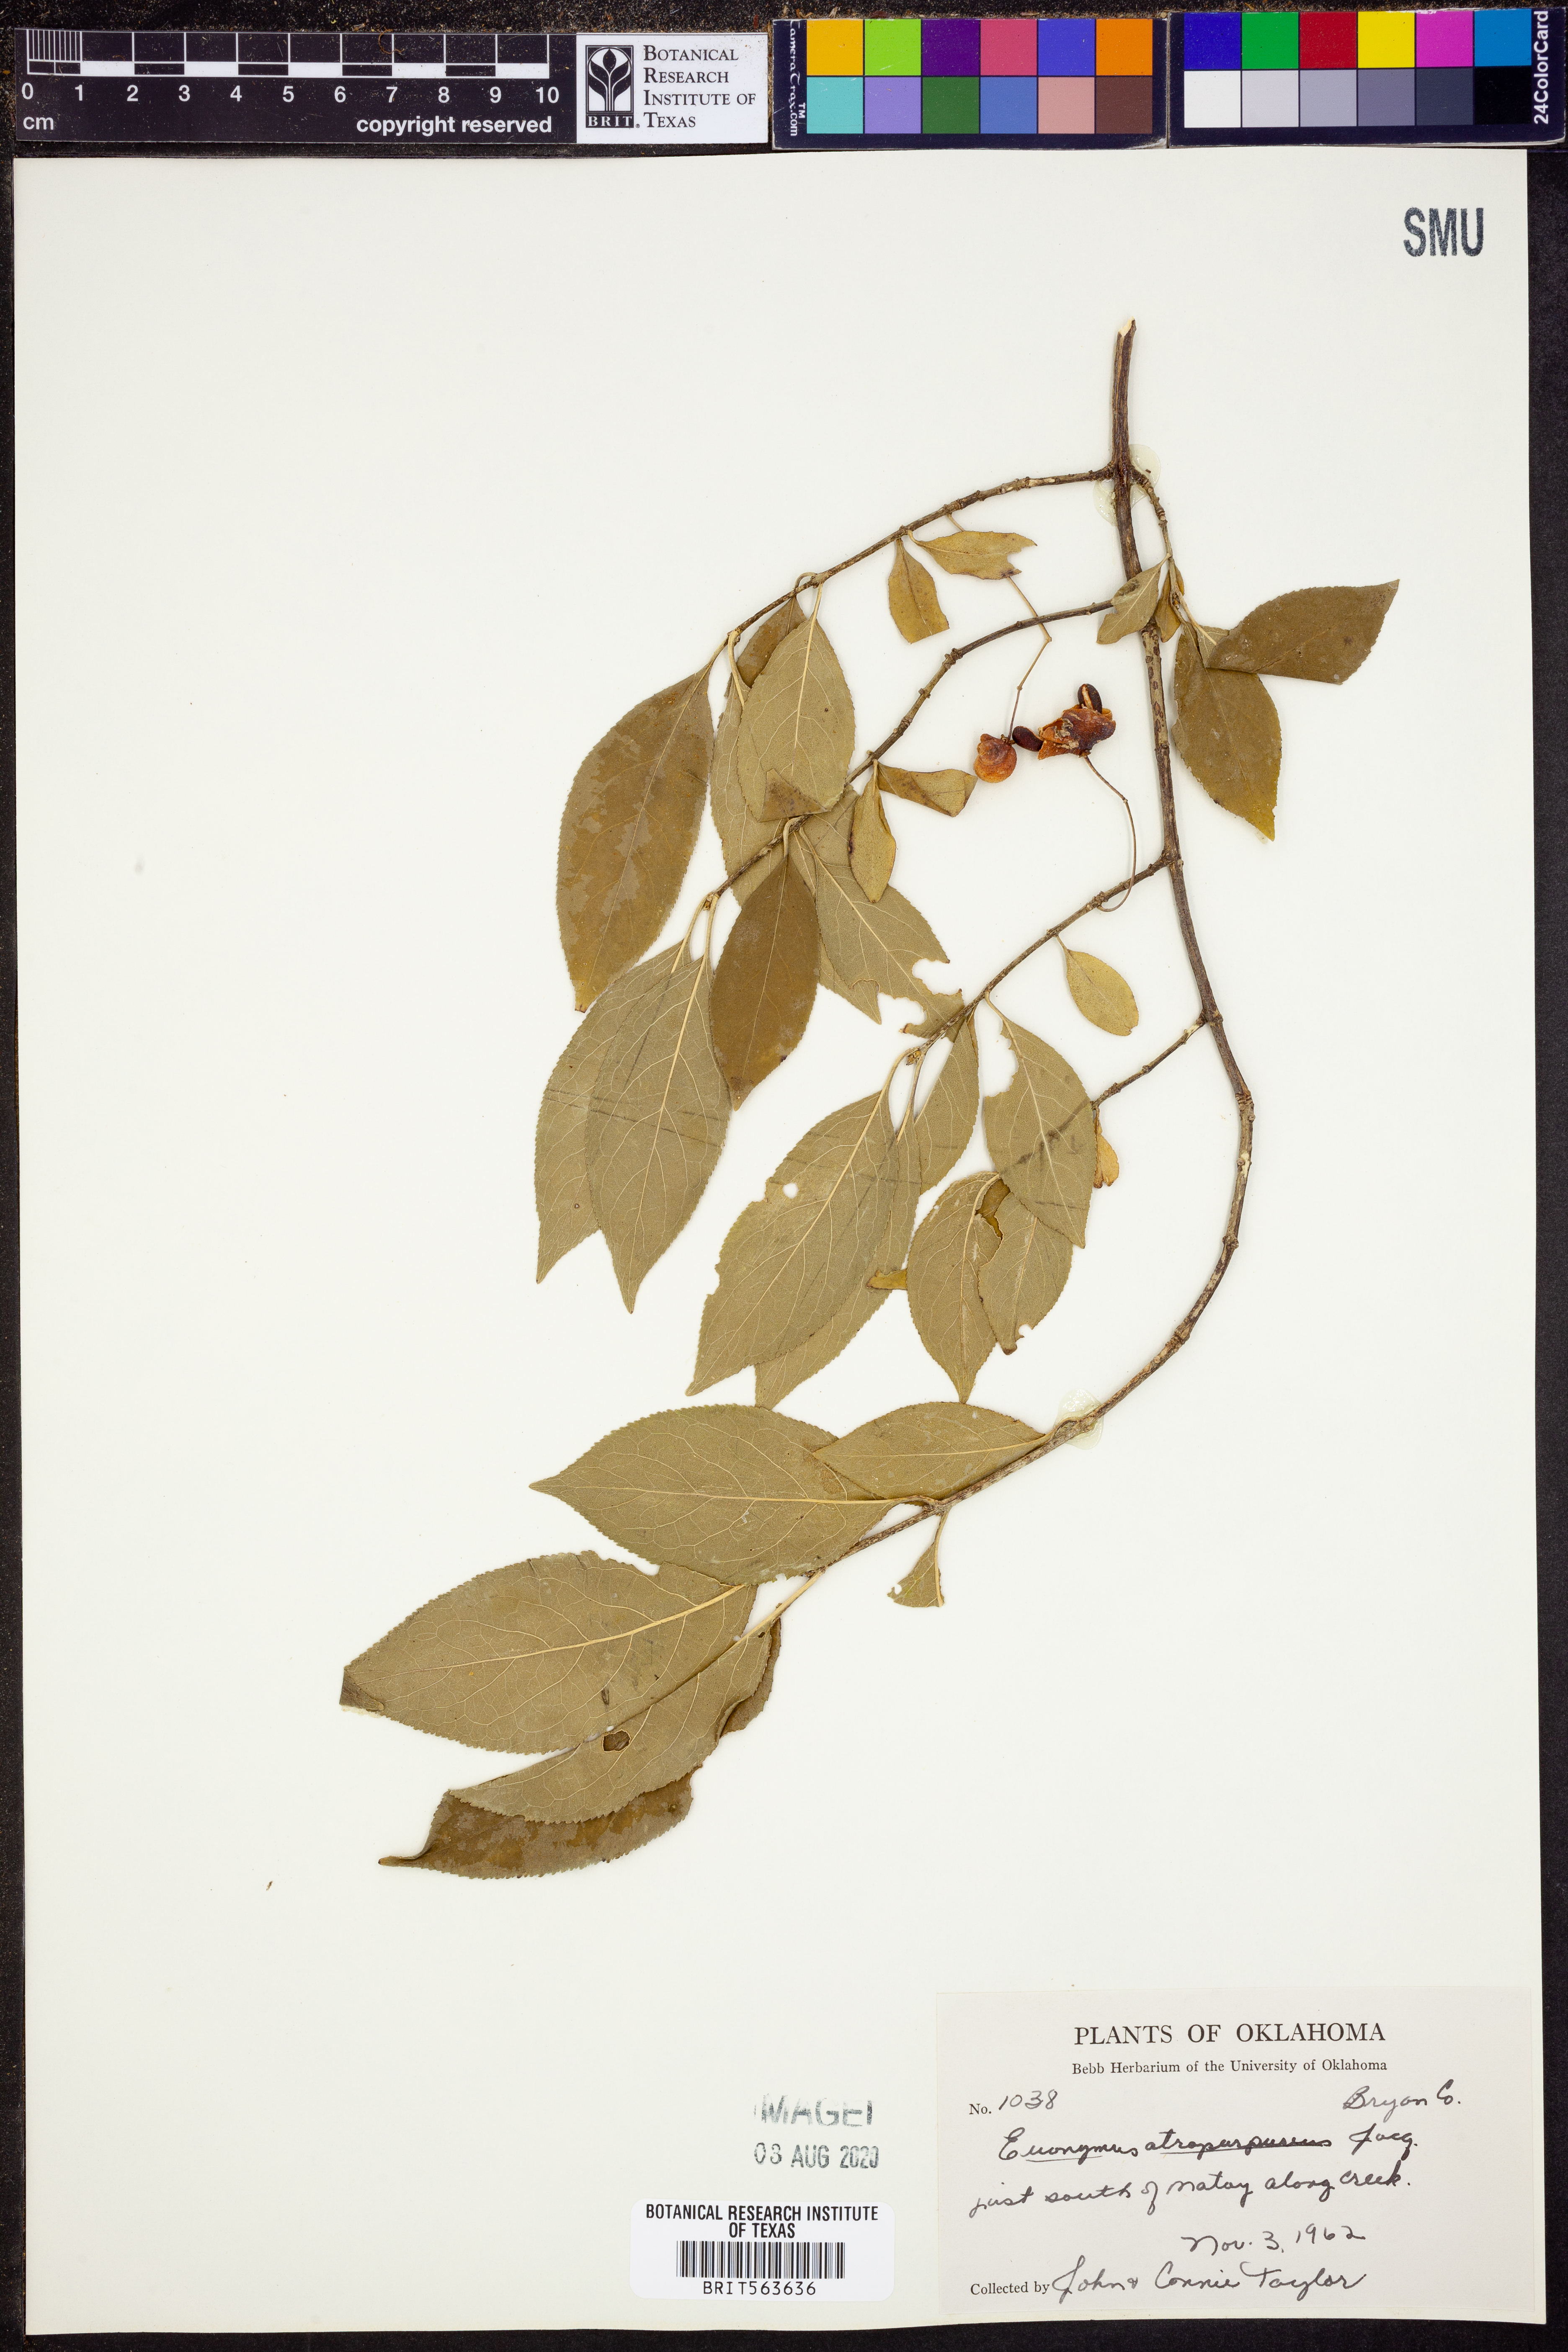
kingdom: Plantae
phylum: Tracheophyta
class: Magnoliopsida
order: Celastrales
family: Celastraceae
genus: Euonymus
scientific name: Euonymus atropurpureus
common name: Eastern wahoo
